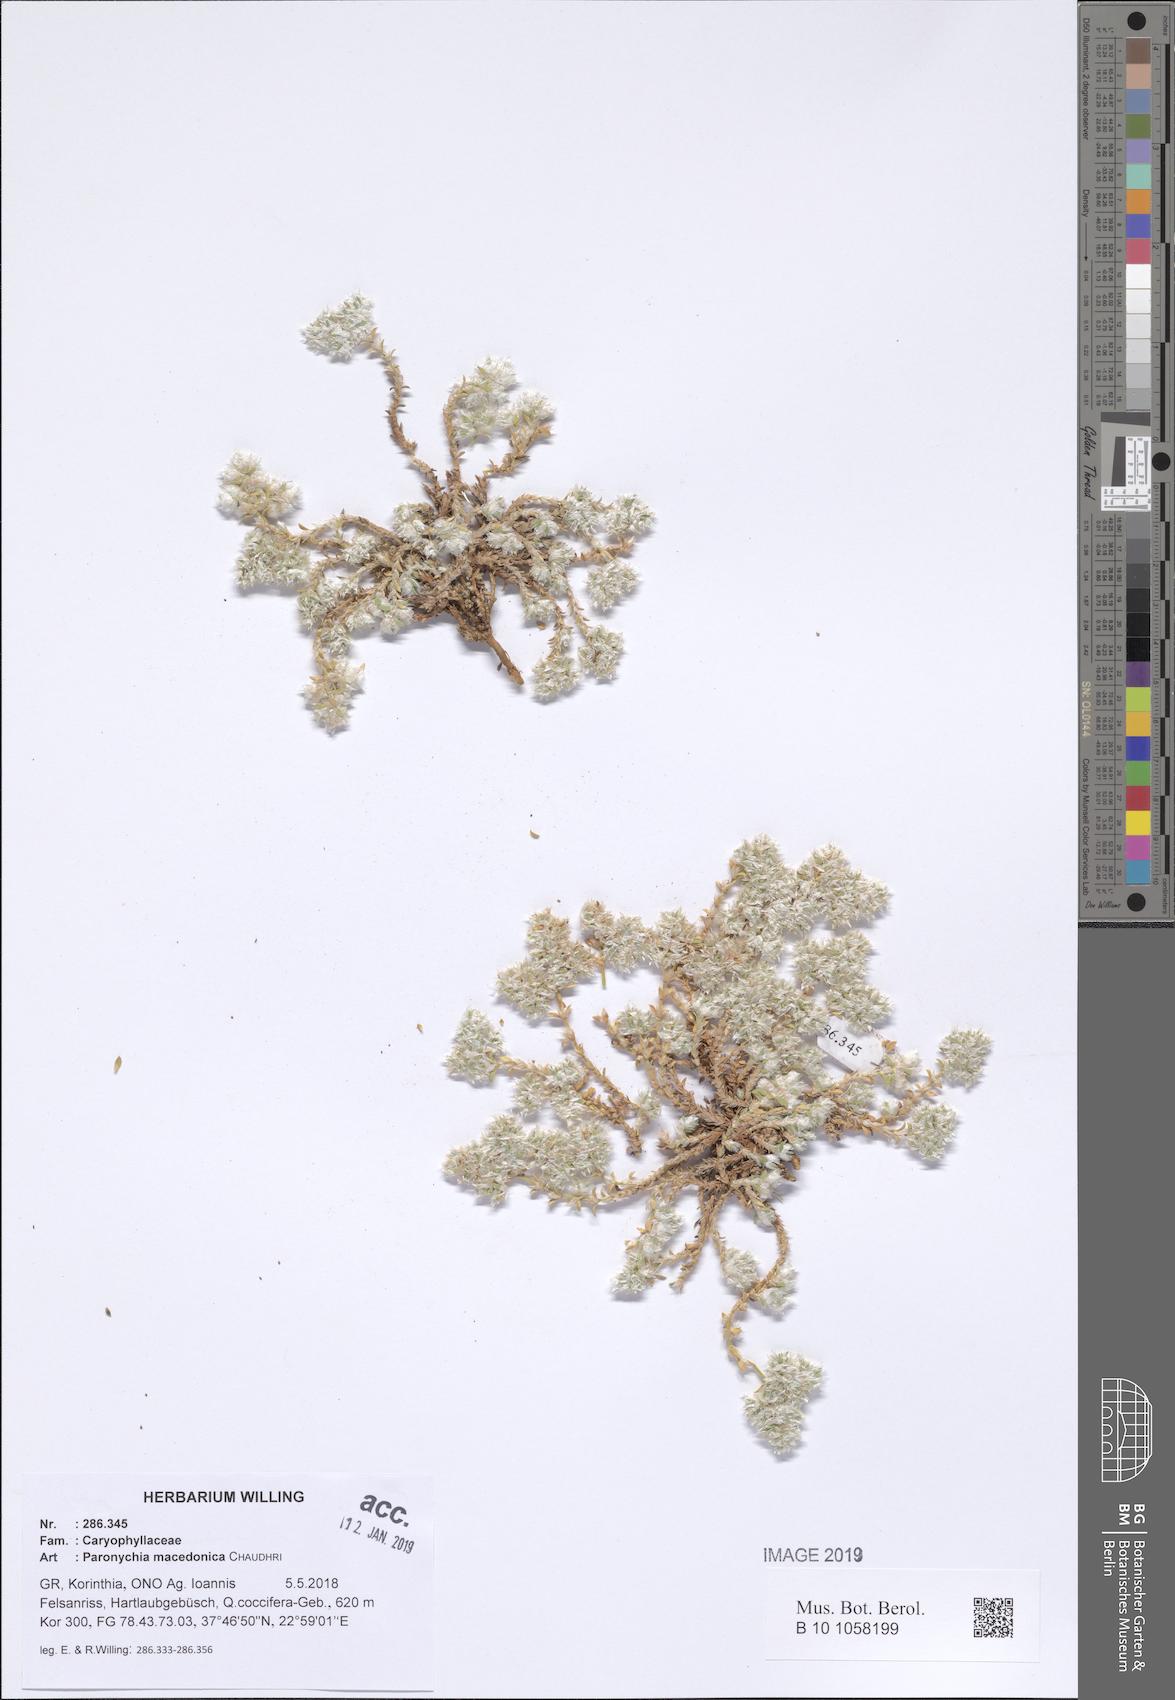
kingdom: Plantae
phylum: Tracheophyta
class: Magnoliopsida
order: Caryophyllales
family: Caryophyllaceae
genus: Paronychia
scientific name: Paronychia macedonica
